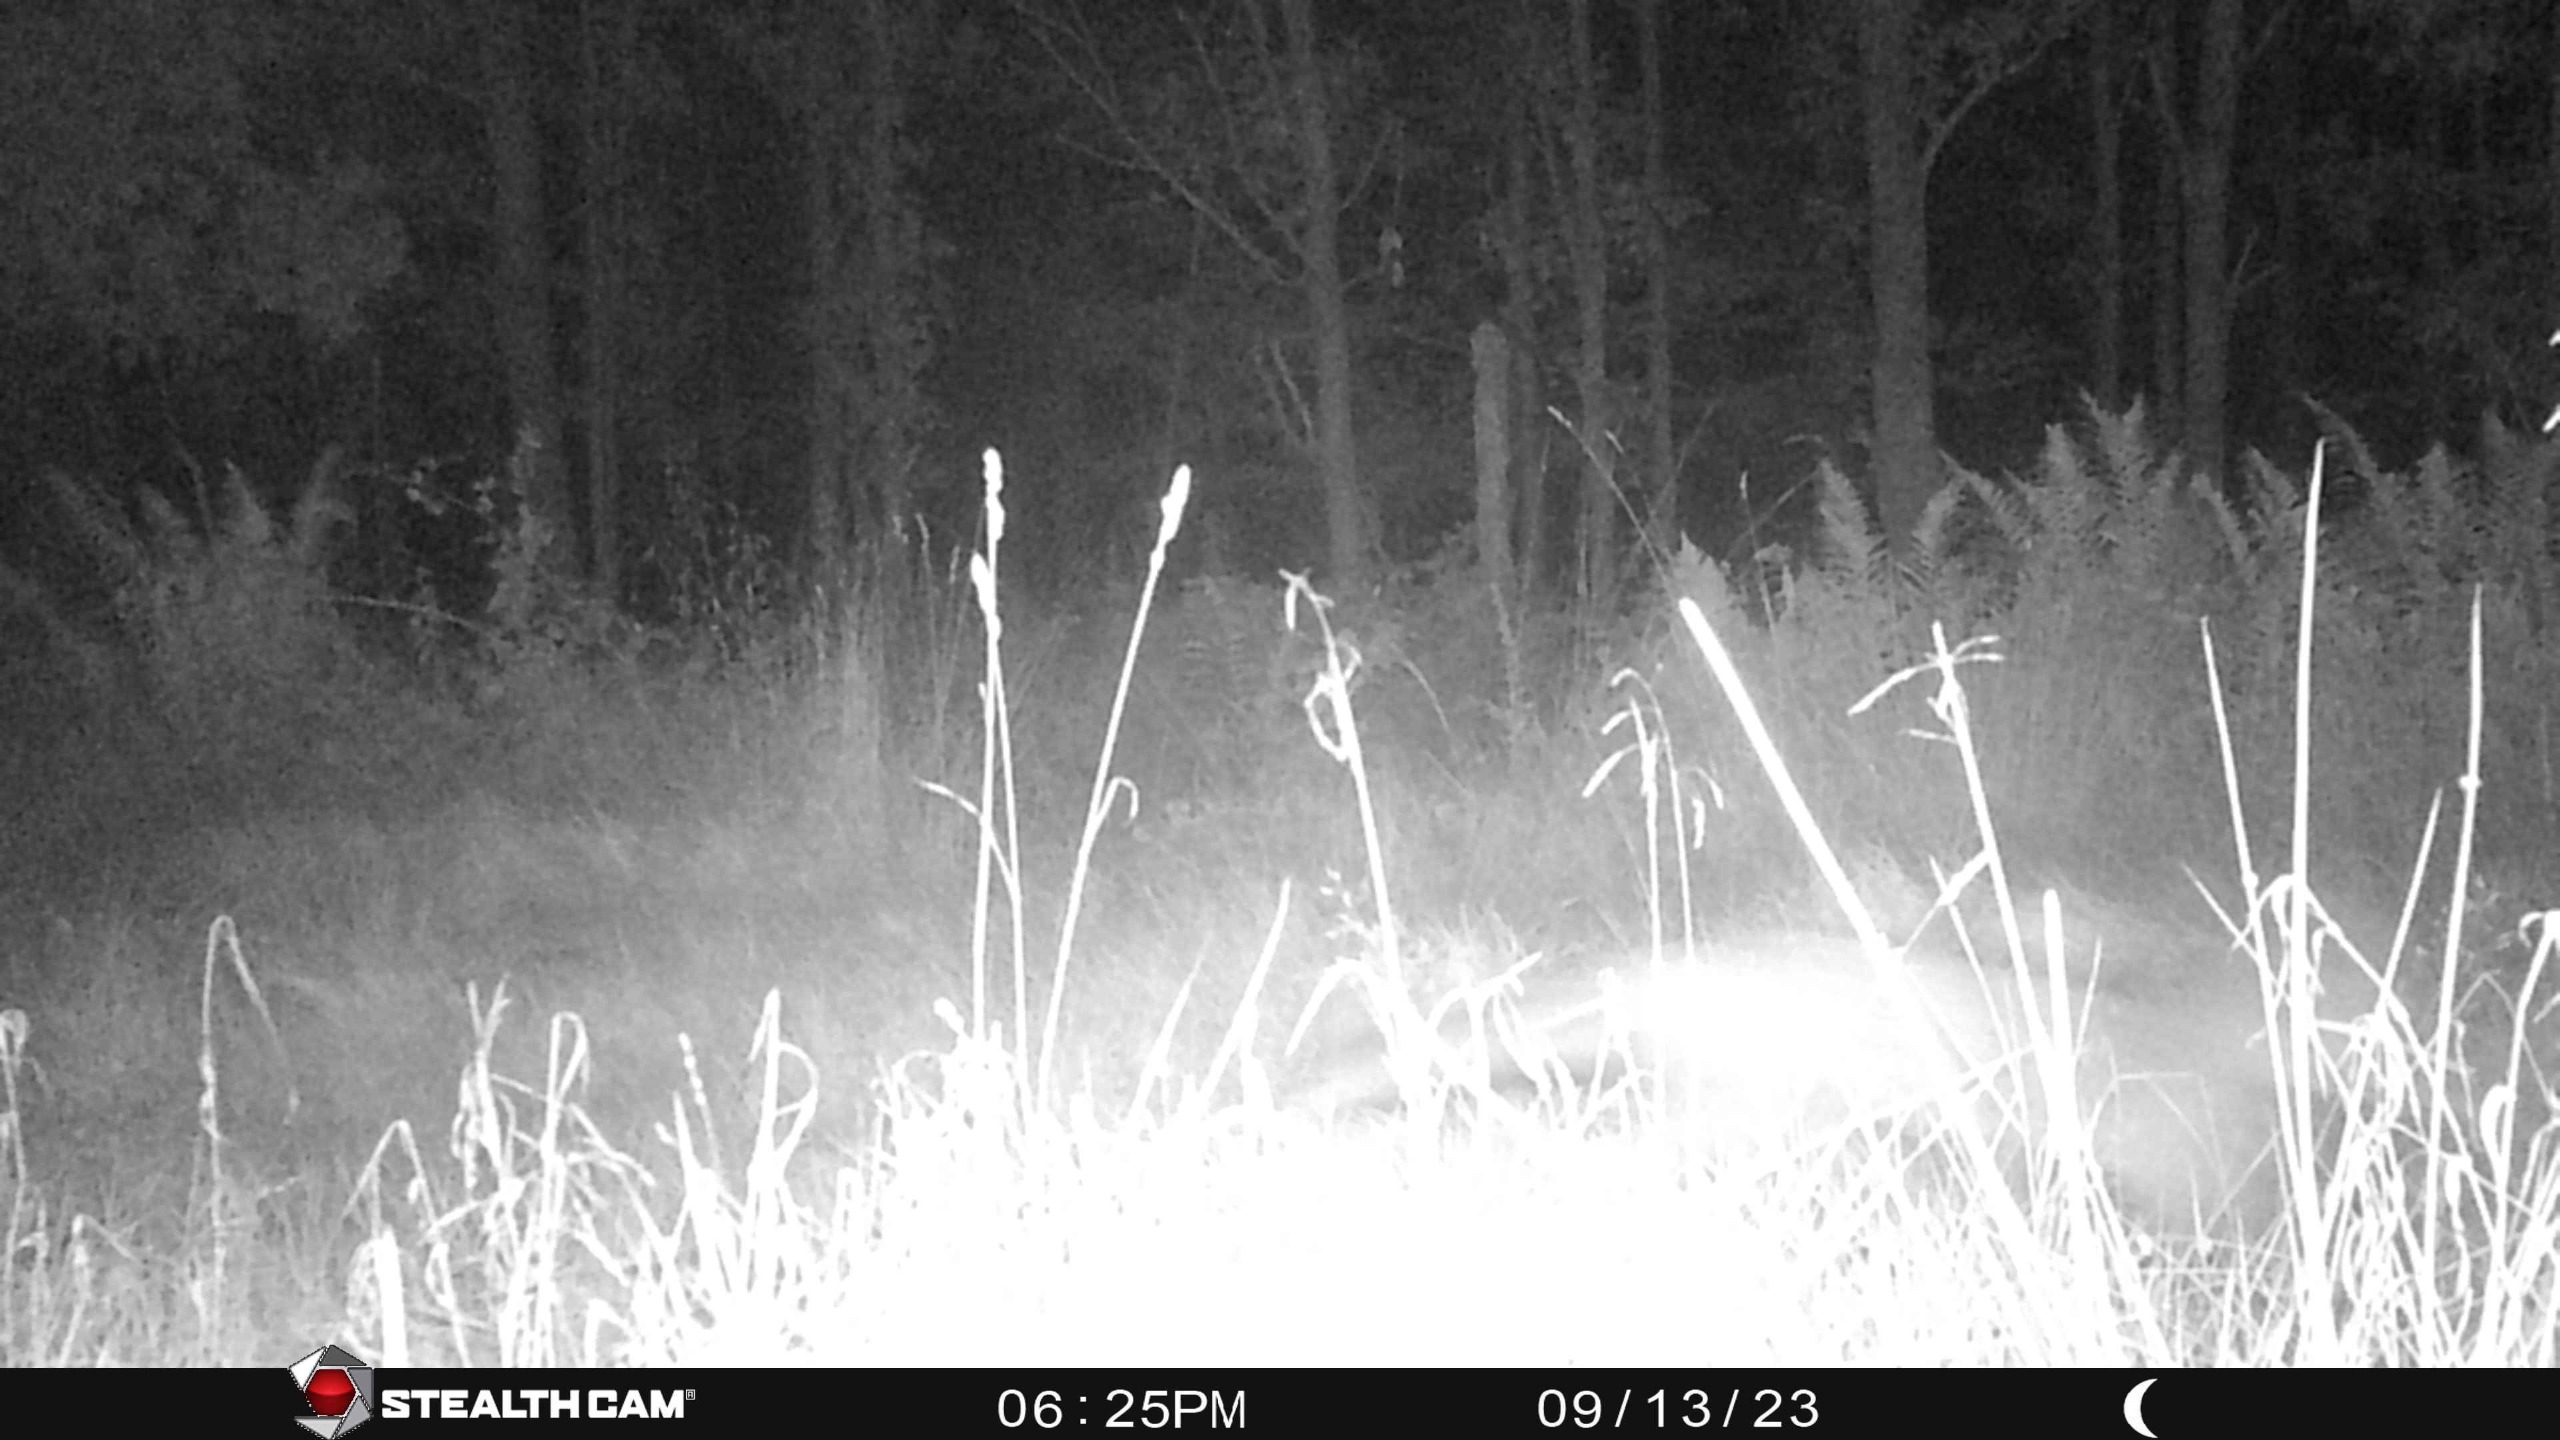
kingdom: Animalia
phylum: Chordata
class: Mammalia
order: Carnivora
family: Canidae
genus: Vulpes
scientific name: Vulpes vulpes
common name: Ræv
